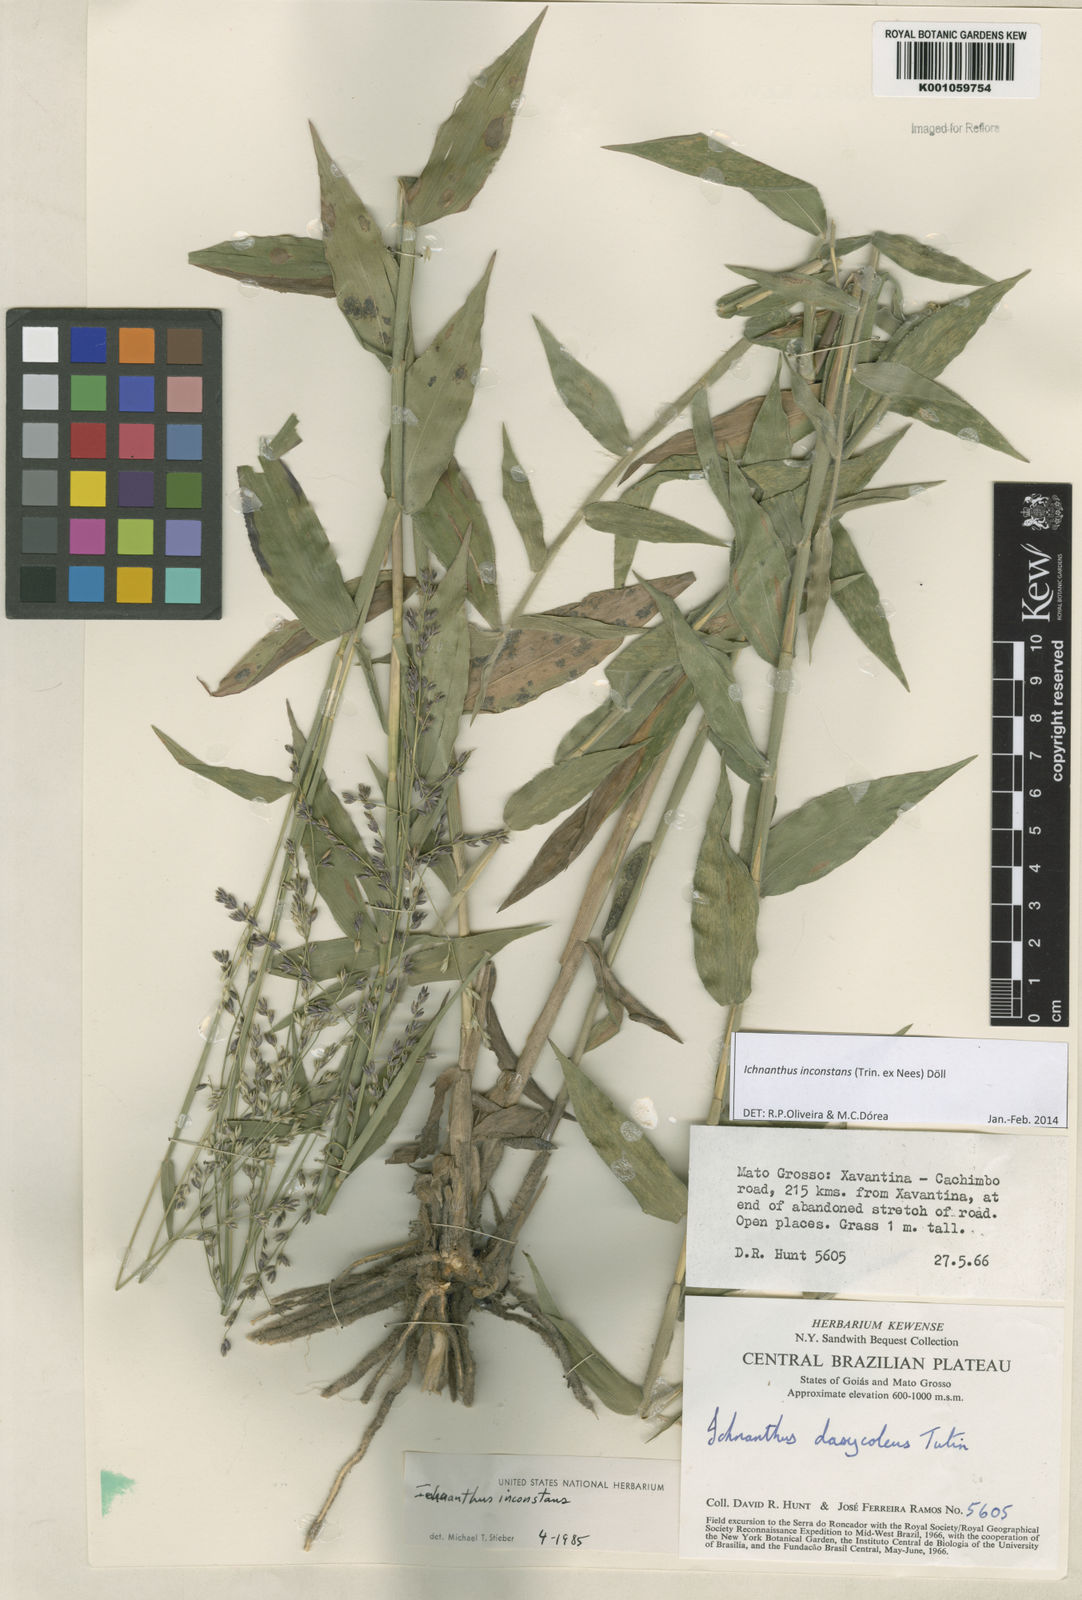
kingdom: Plantae
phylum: Tracheophyta
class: Liliopsida
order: Poales
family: Poaceae
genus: Ichnanthus
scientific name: Ichnanthus
